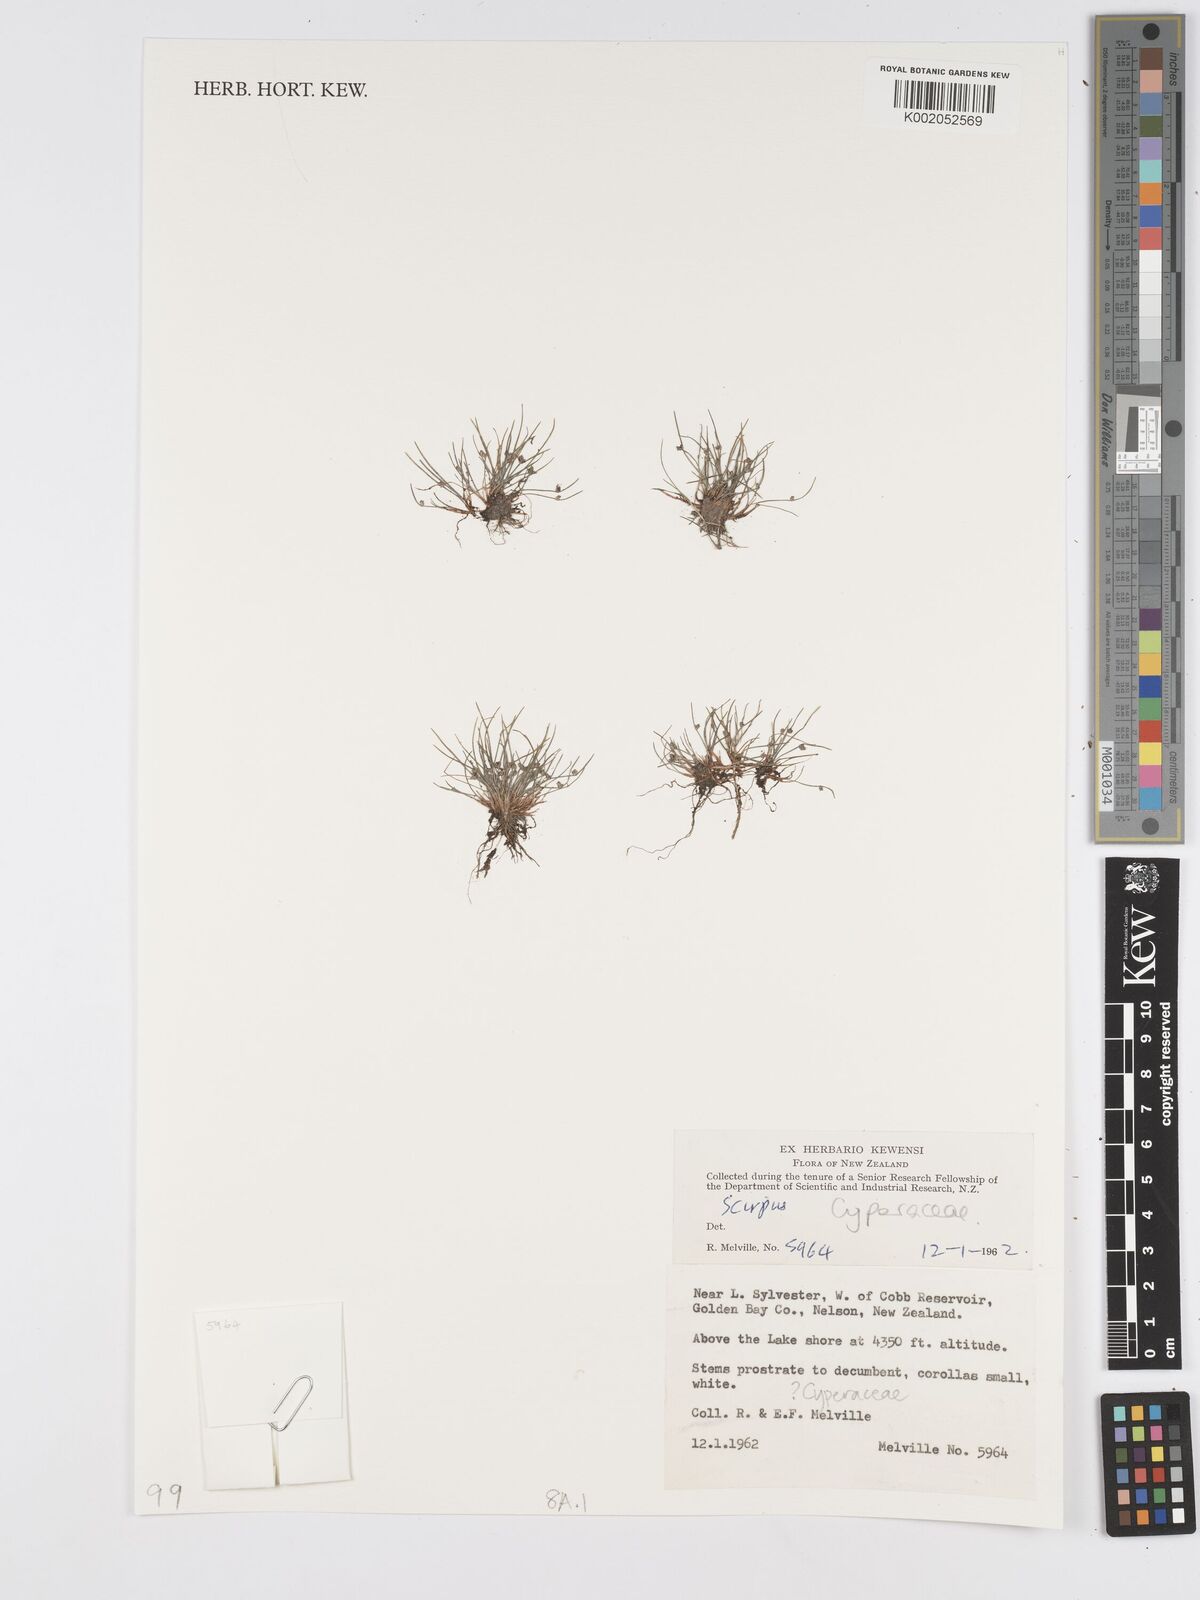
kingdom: Plantae
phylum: Tracheophyta
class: Liliopsida
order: Poales
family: Cyperaceae
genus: Scirpus
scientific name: Scirpus
